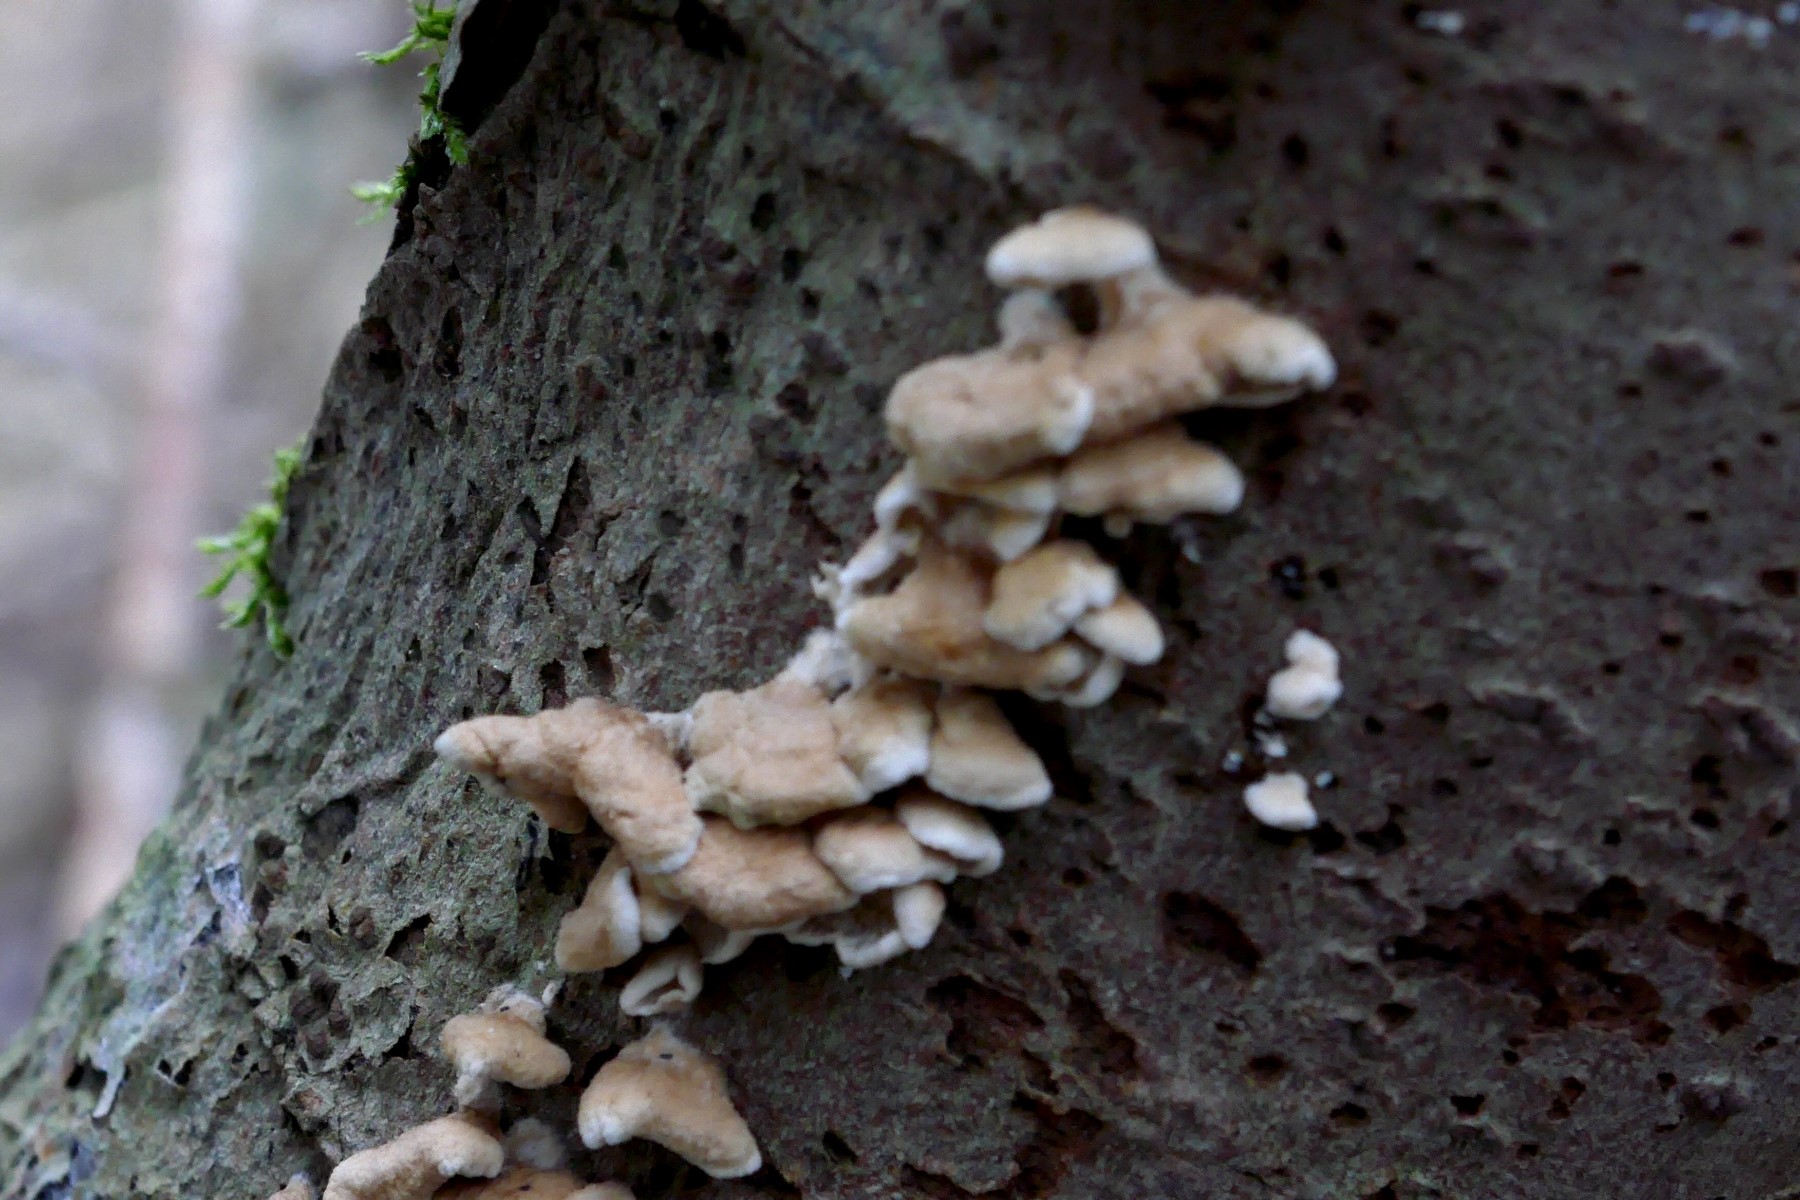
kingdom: Fungi
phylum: Basidiomycota
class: Agaricomycetes
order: Amylocorticiales
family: Amylocorticiaceae
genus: Plicaturopsis
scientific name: Plicaturopsis crispa
